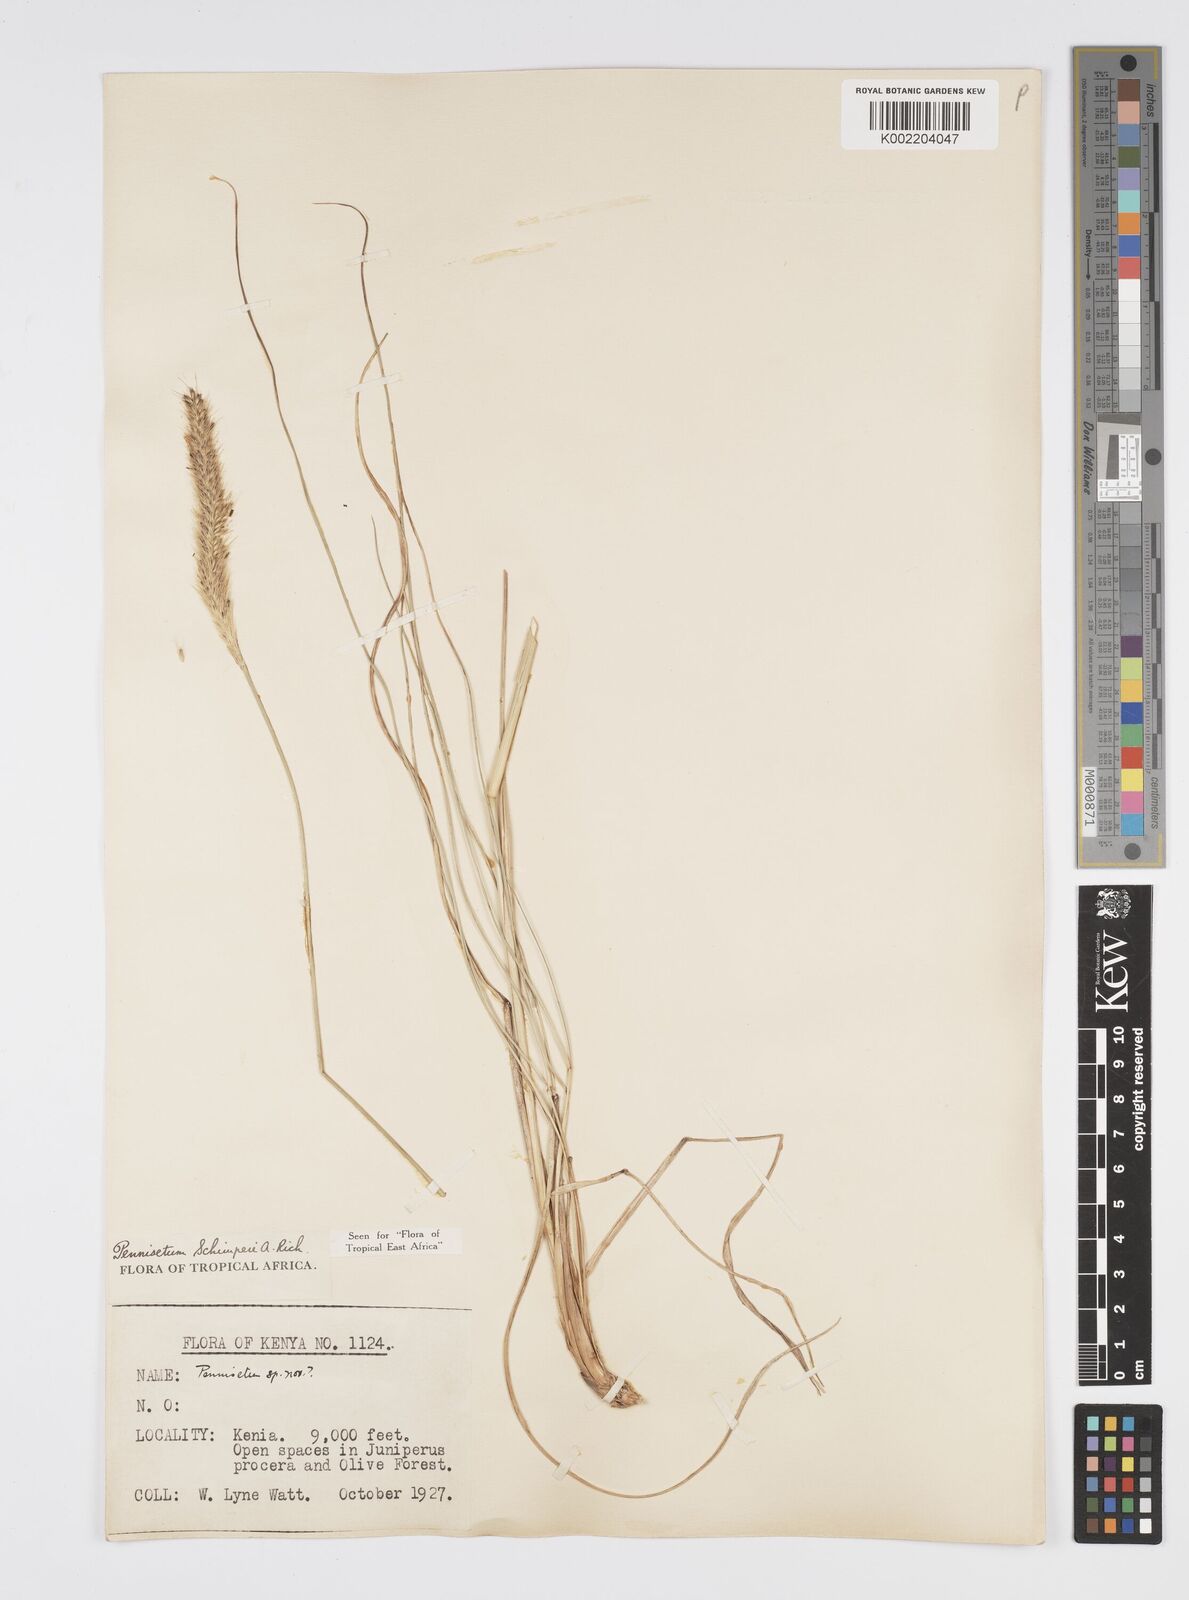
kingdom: Plantae
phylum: Tracheophyta
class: Liliopsida
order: Poales
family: Poaceae
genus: Cenchrus
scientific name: Cenchrus sphacelatus
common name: Bulgras
